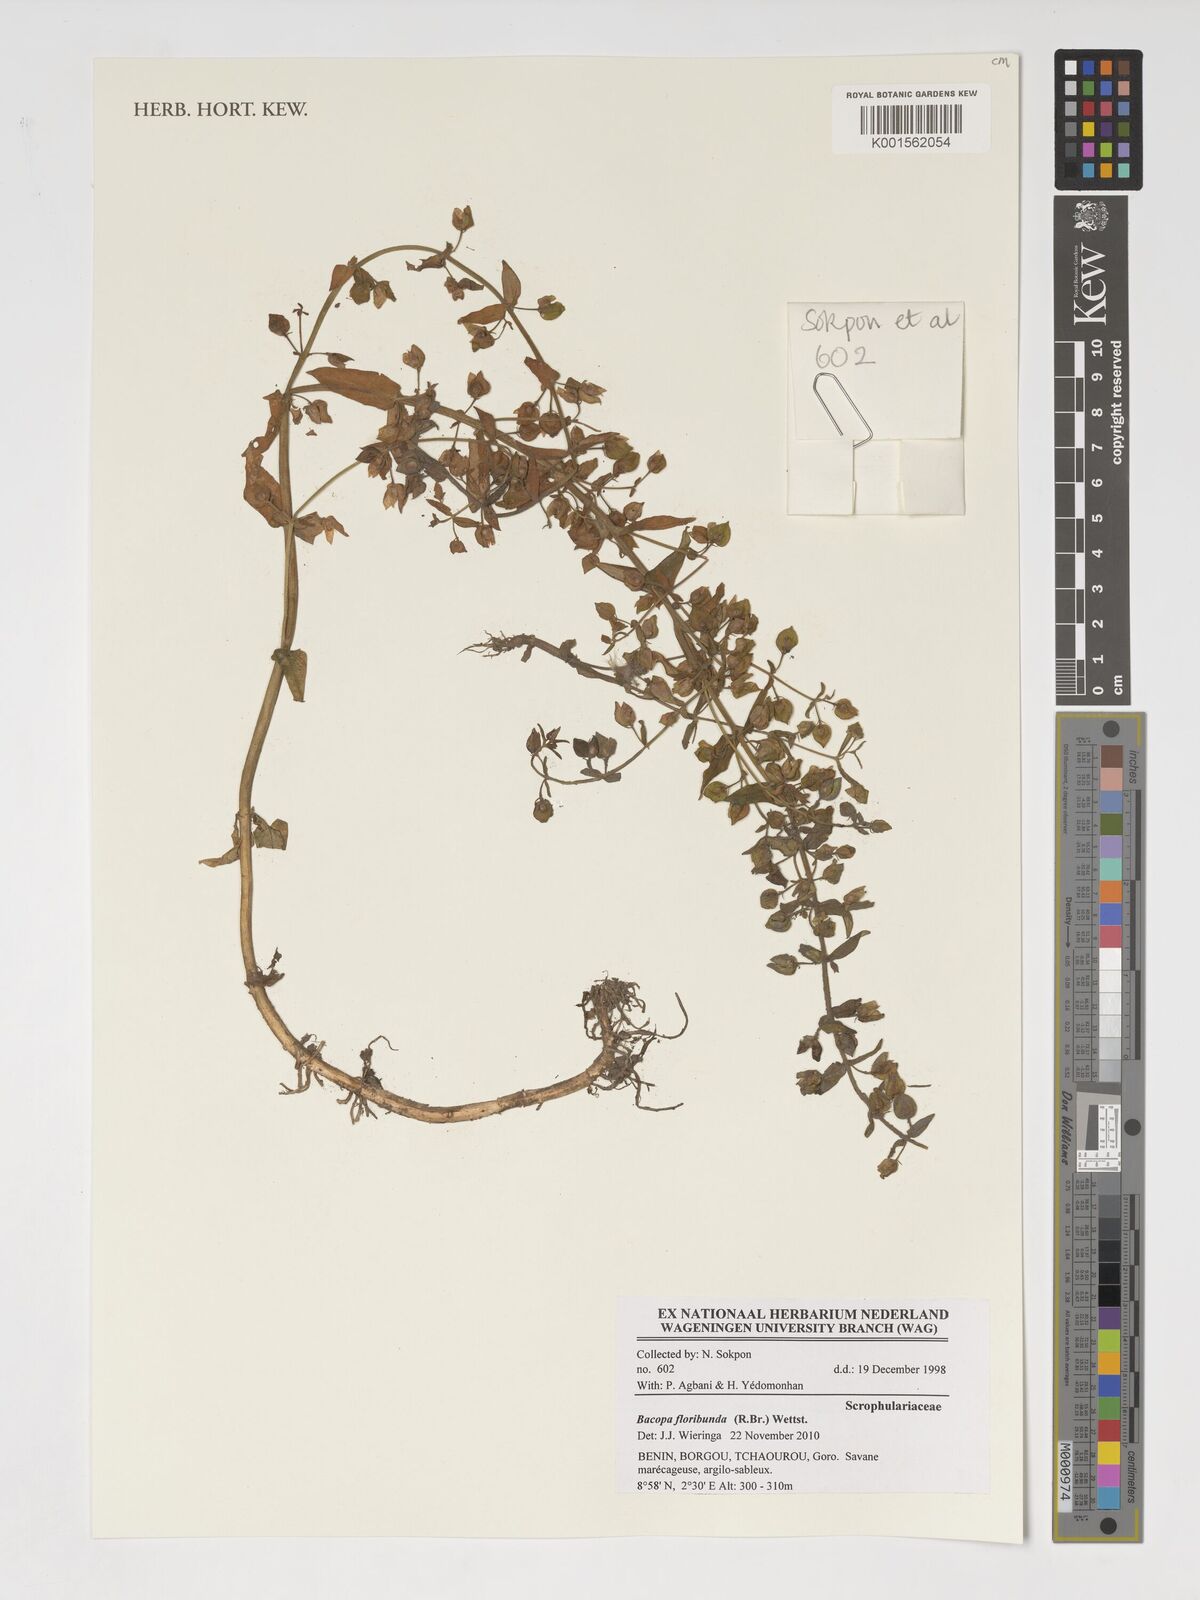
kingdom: Plantae
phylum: Tracheophyta
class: Magnoliopsida
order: Lamiales
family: Plantaginaceae
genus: Bacopa
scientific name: Bacopa floribunda
